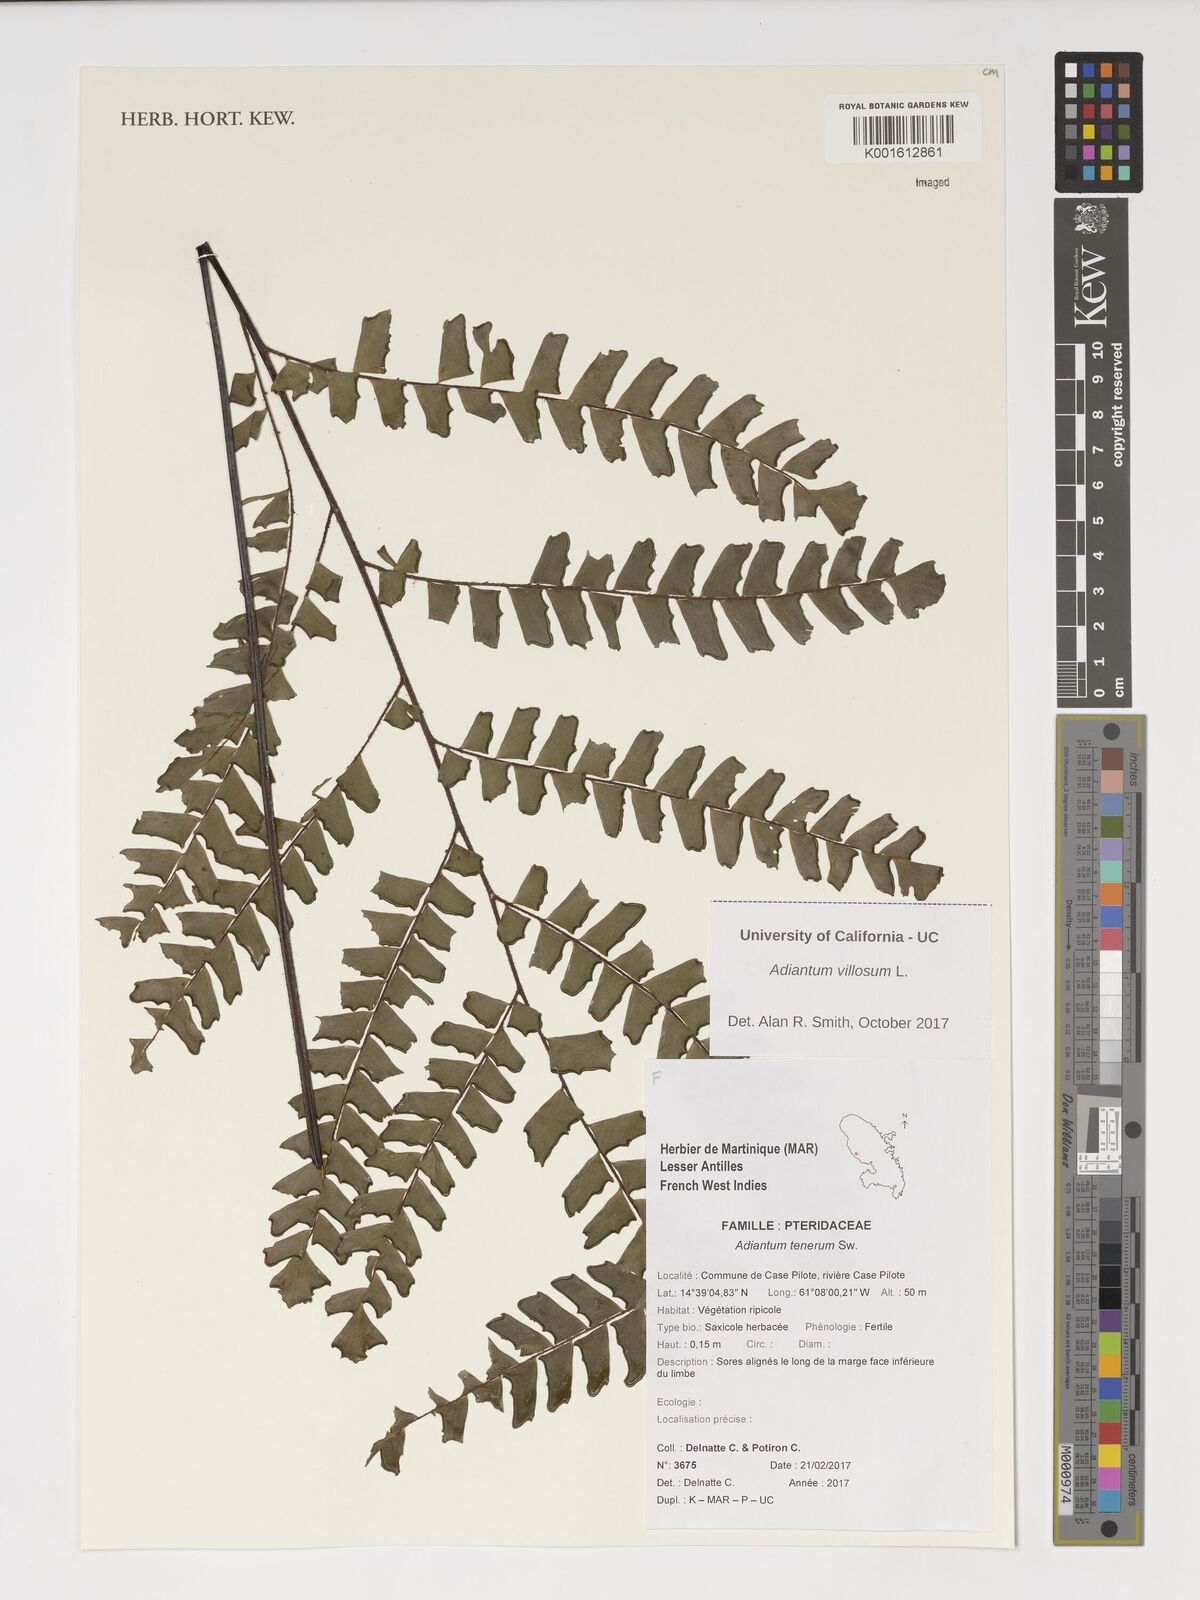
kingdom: Plantae
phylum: Tracheophyta
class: Polypodiopsida
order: Polypodiales
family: Pteridaceae
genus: Adiantum
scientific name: Adiantum tenerum
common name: Fan maidenhair
